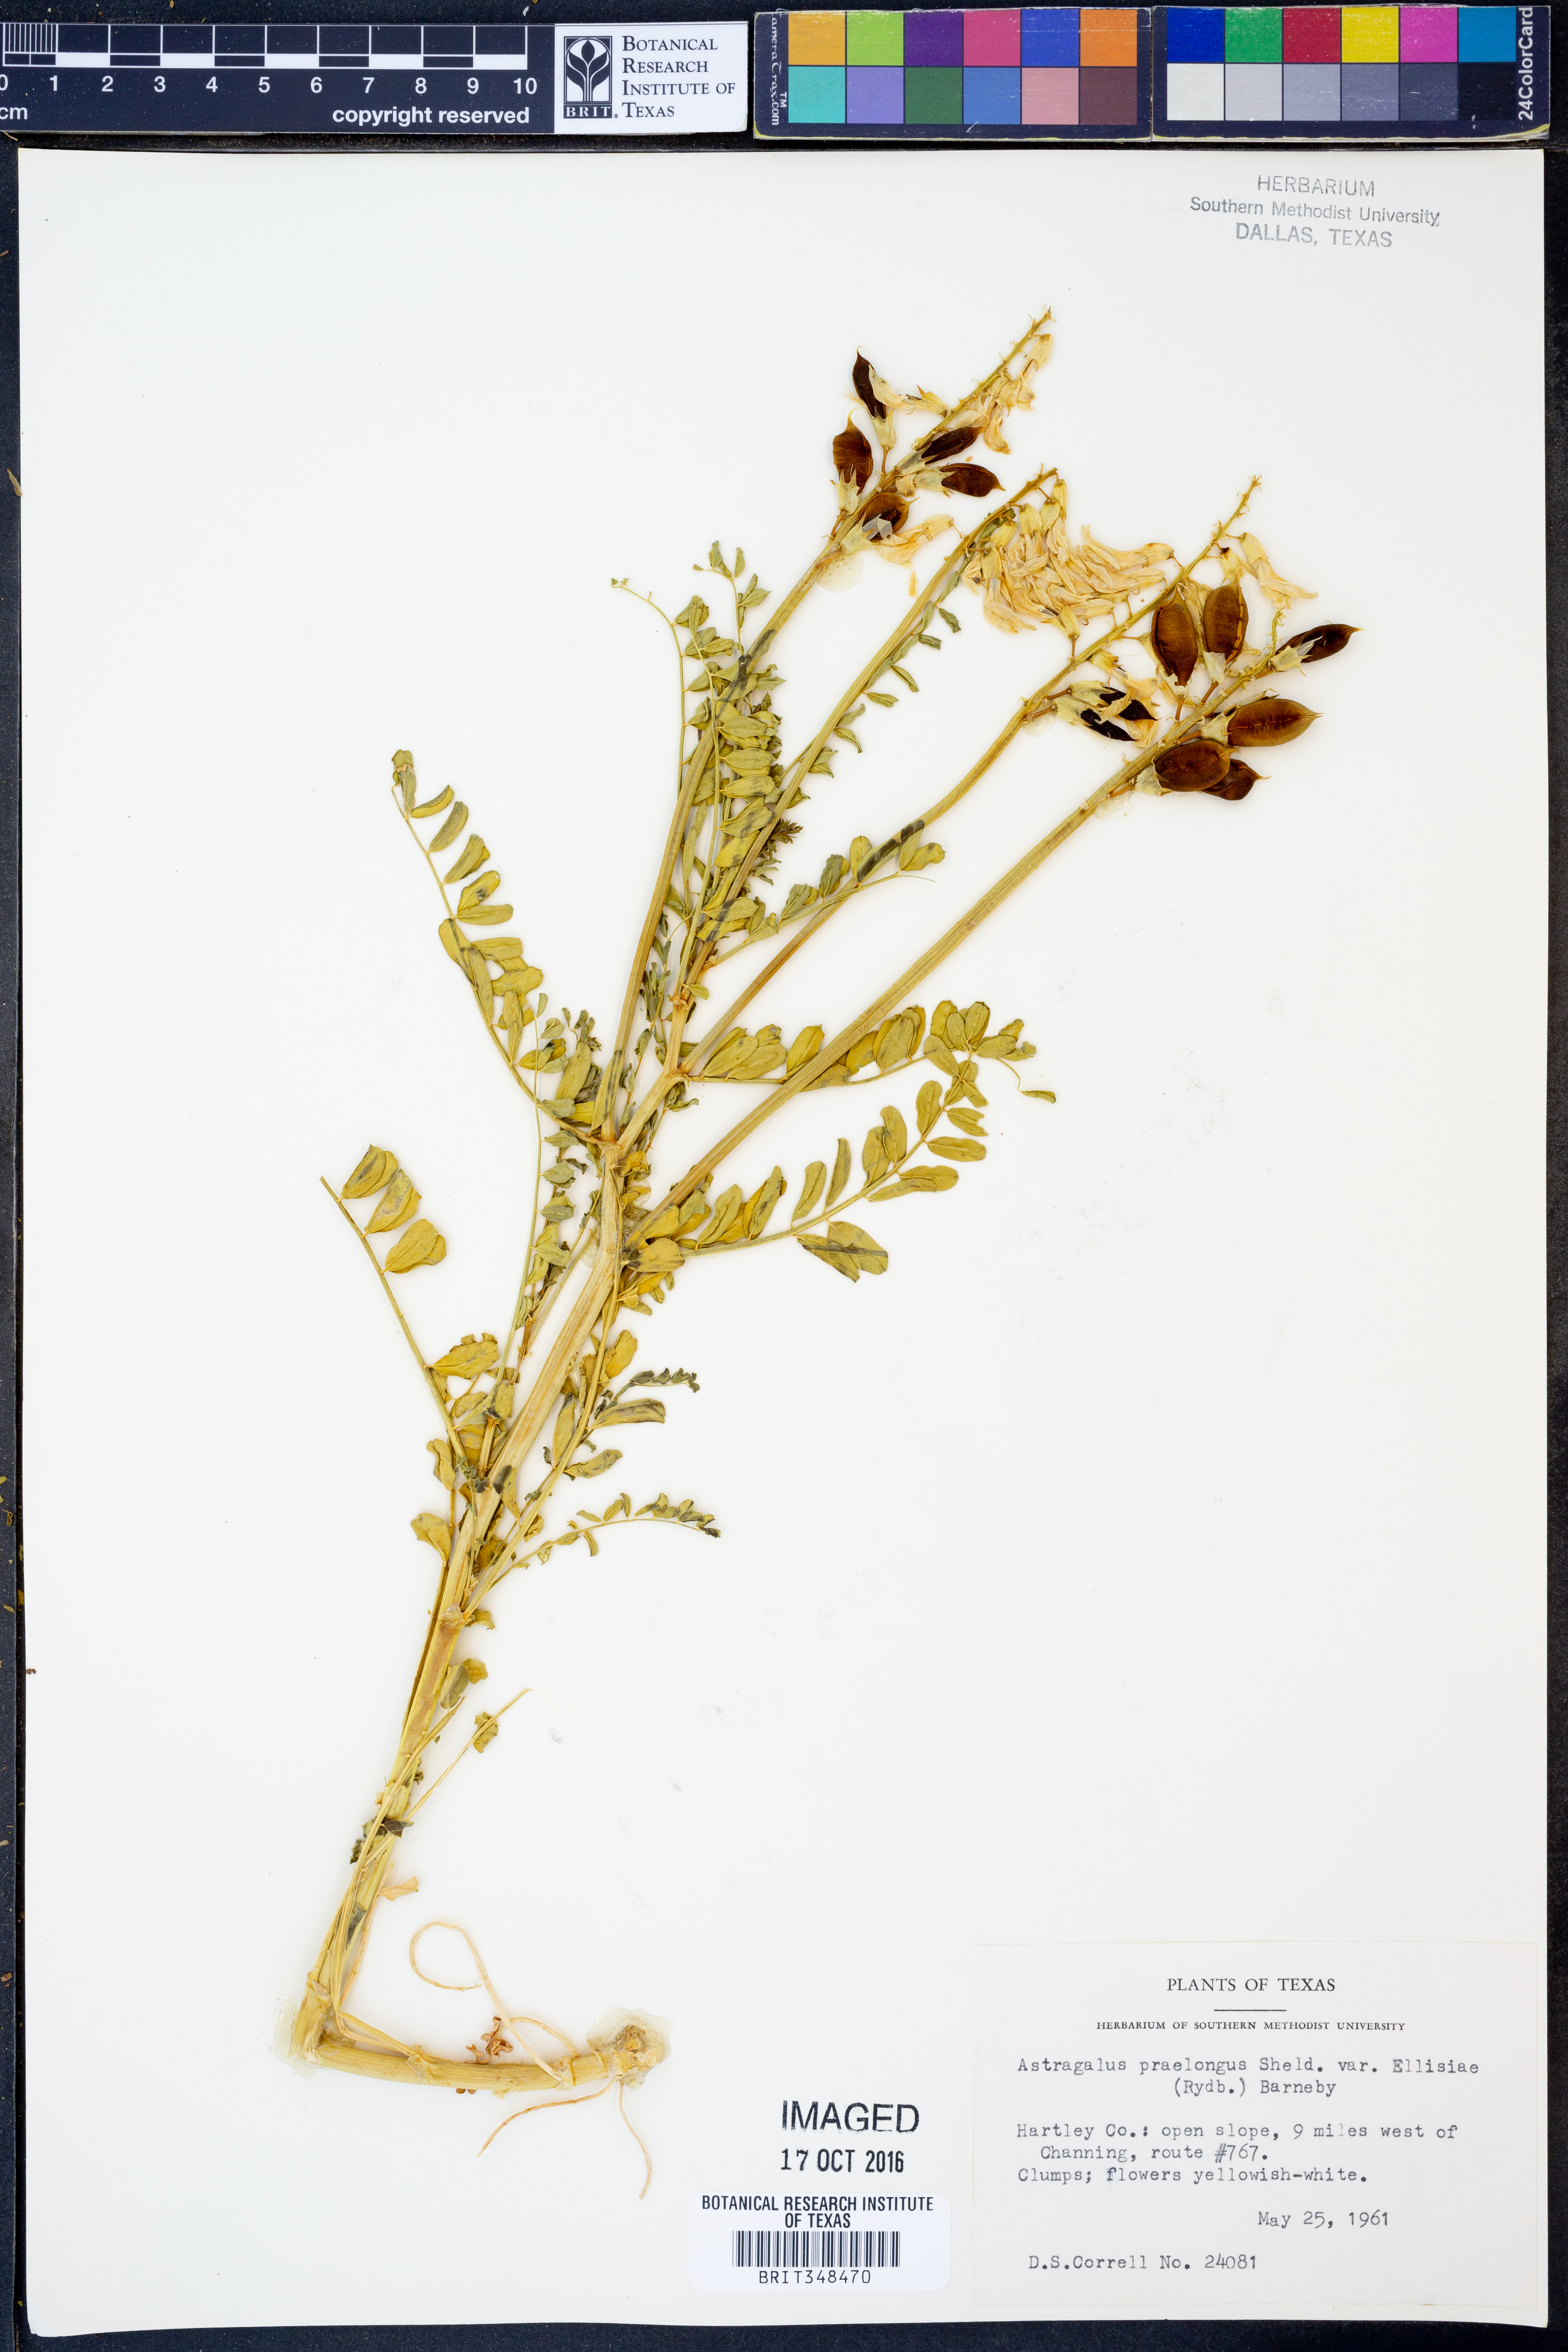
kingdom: Plantae
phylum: Tracheophyta
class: Magnoliopsida
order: Fabales
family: Fabaceae
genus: Astragalus
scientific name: Astragalus praelongus
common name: Stinking milk-vetch
